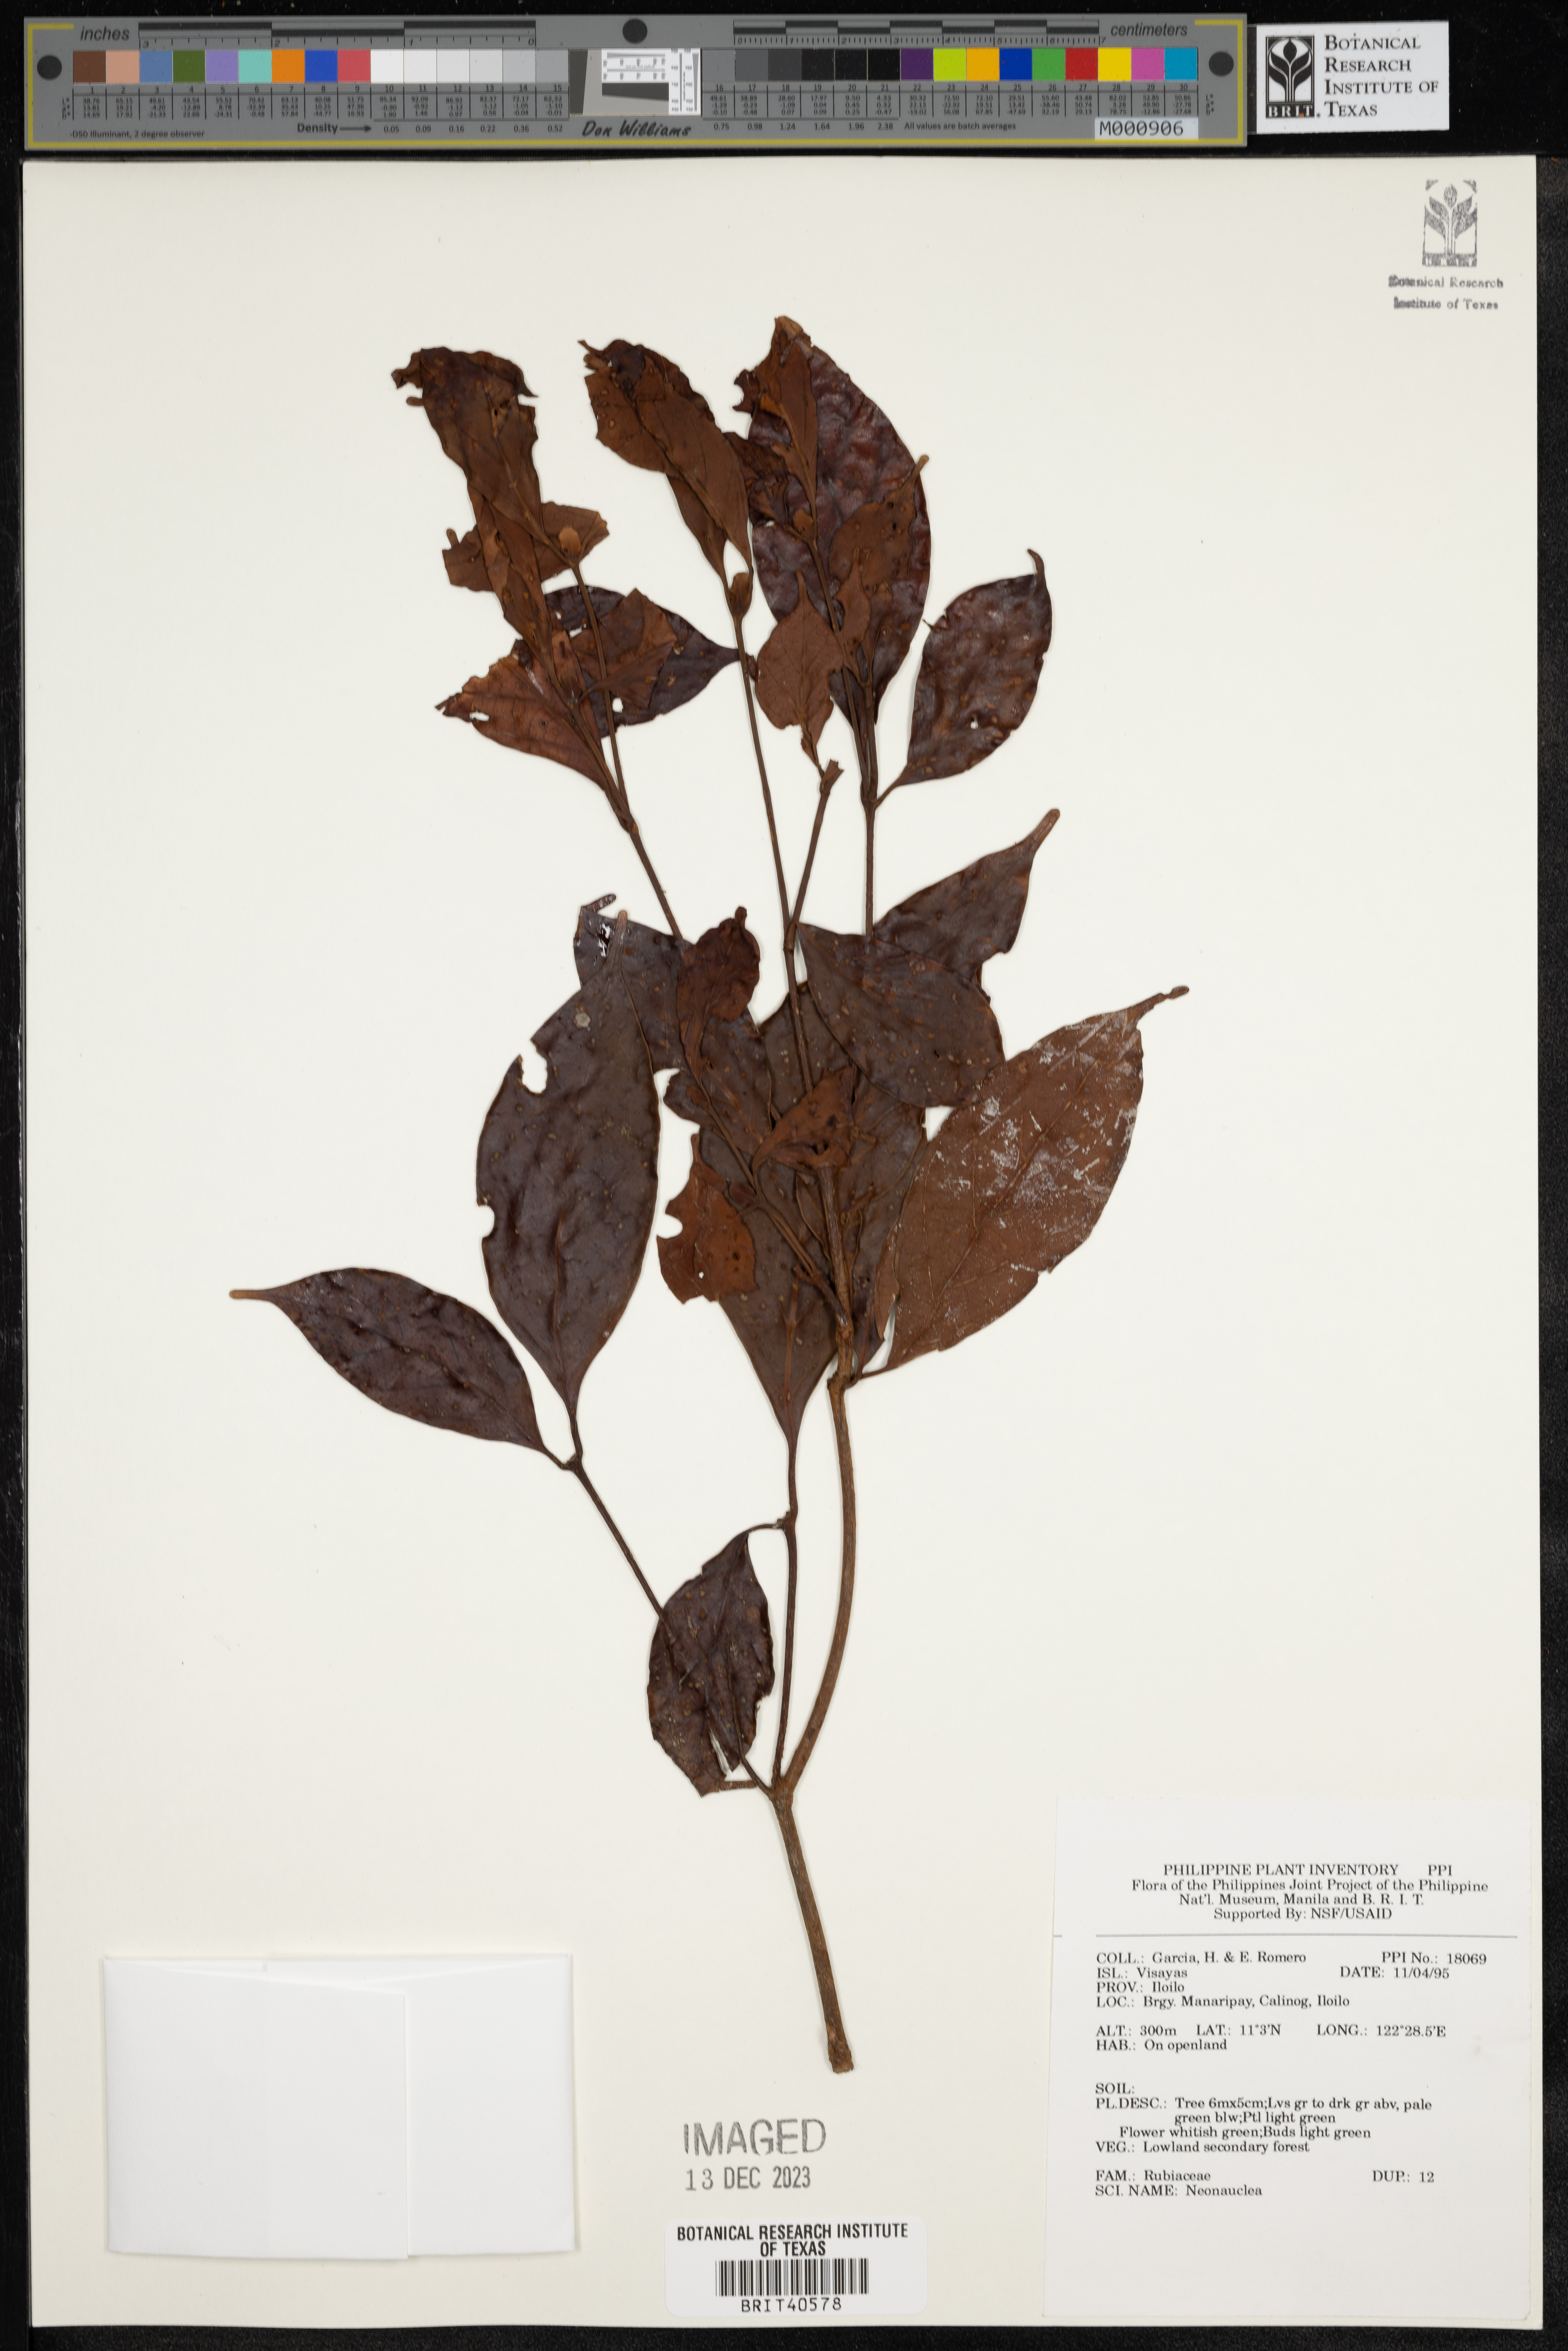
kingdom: Plantae
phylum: Tracheophyta
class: Magnoliopsida
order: Gentianales
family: Rubiaceae
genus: Neonauclea
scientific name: Neonauclea
